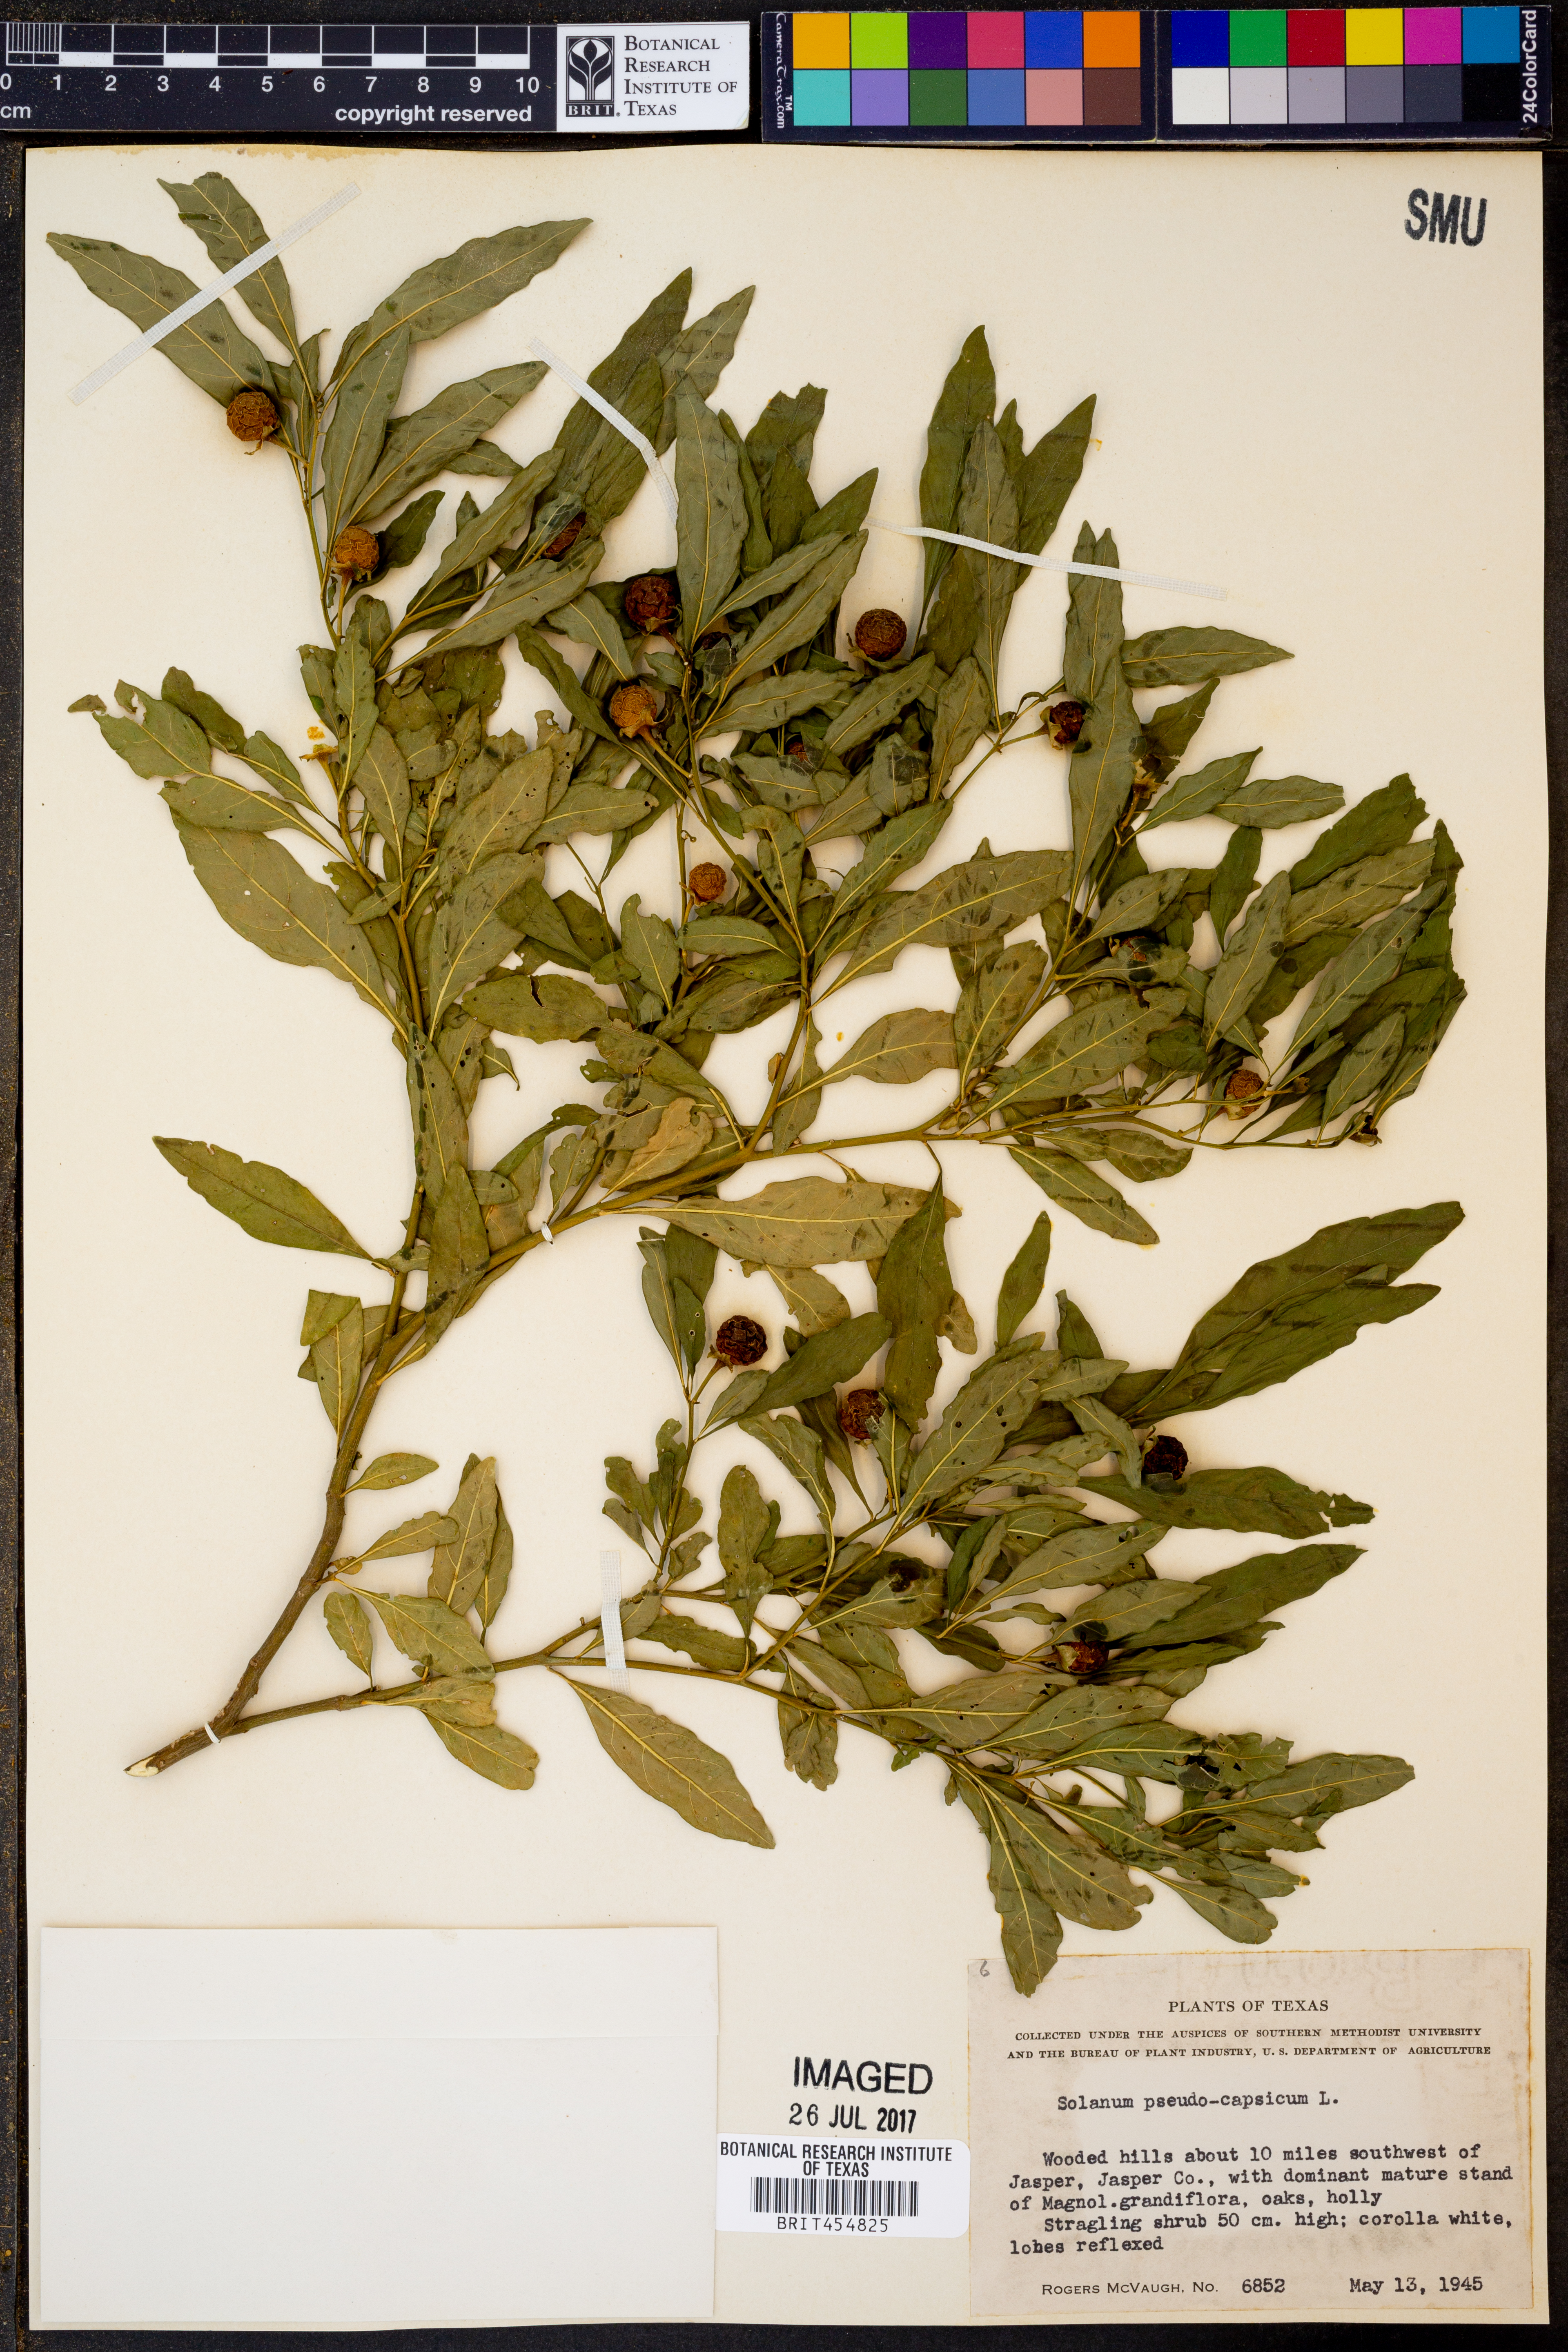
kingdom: Plantae
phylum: Tracheophyta
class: Magnoliopsida
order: Solanales
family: Solanaceae
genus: Solanum
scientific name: Solanum pseudocapsicum
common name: Jerusalem cherry
